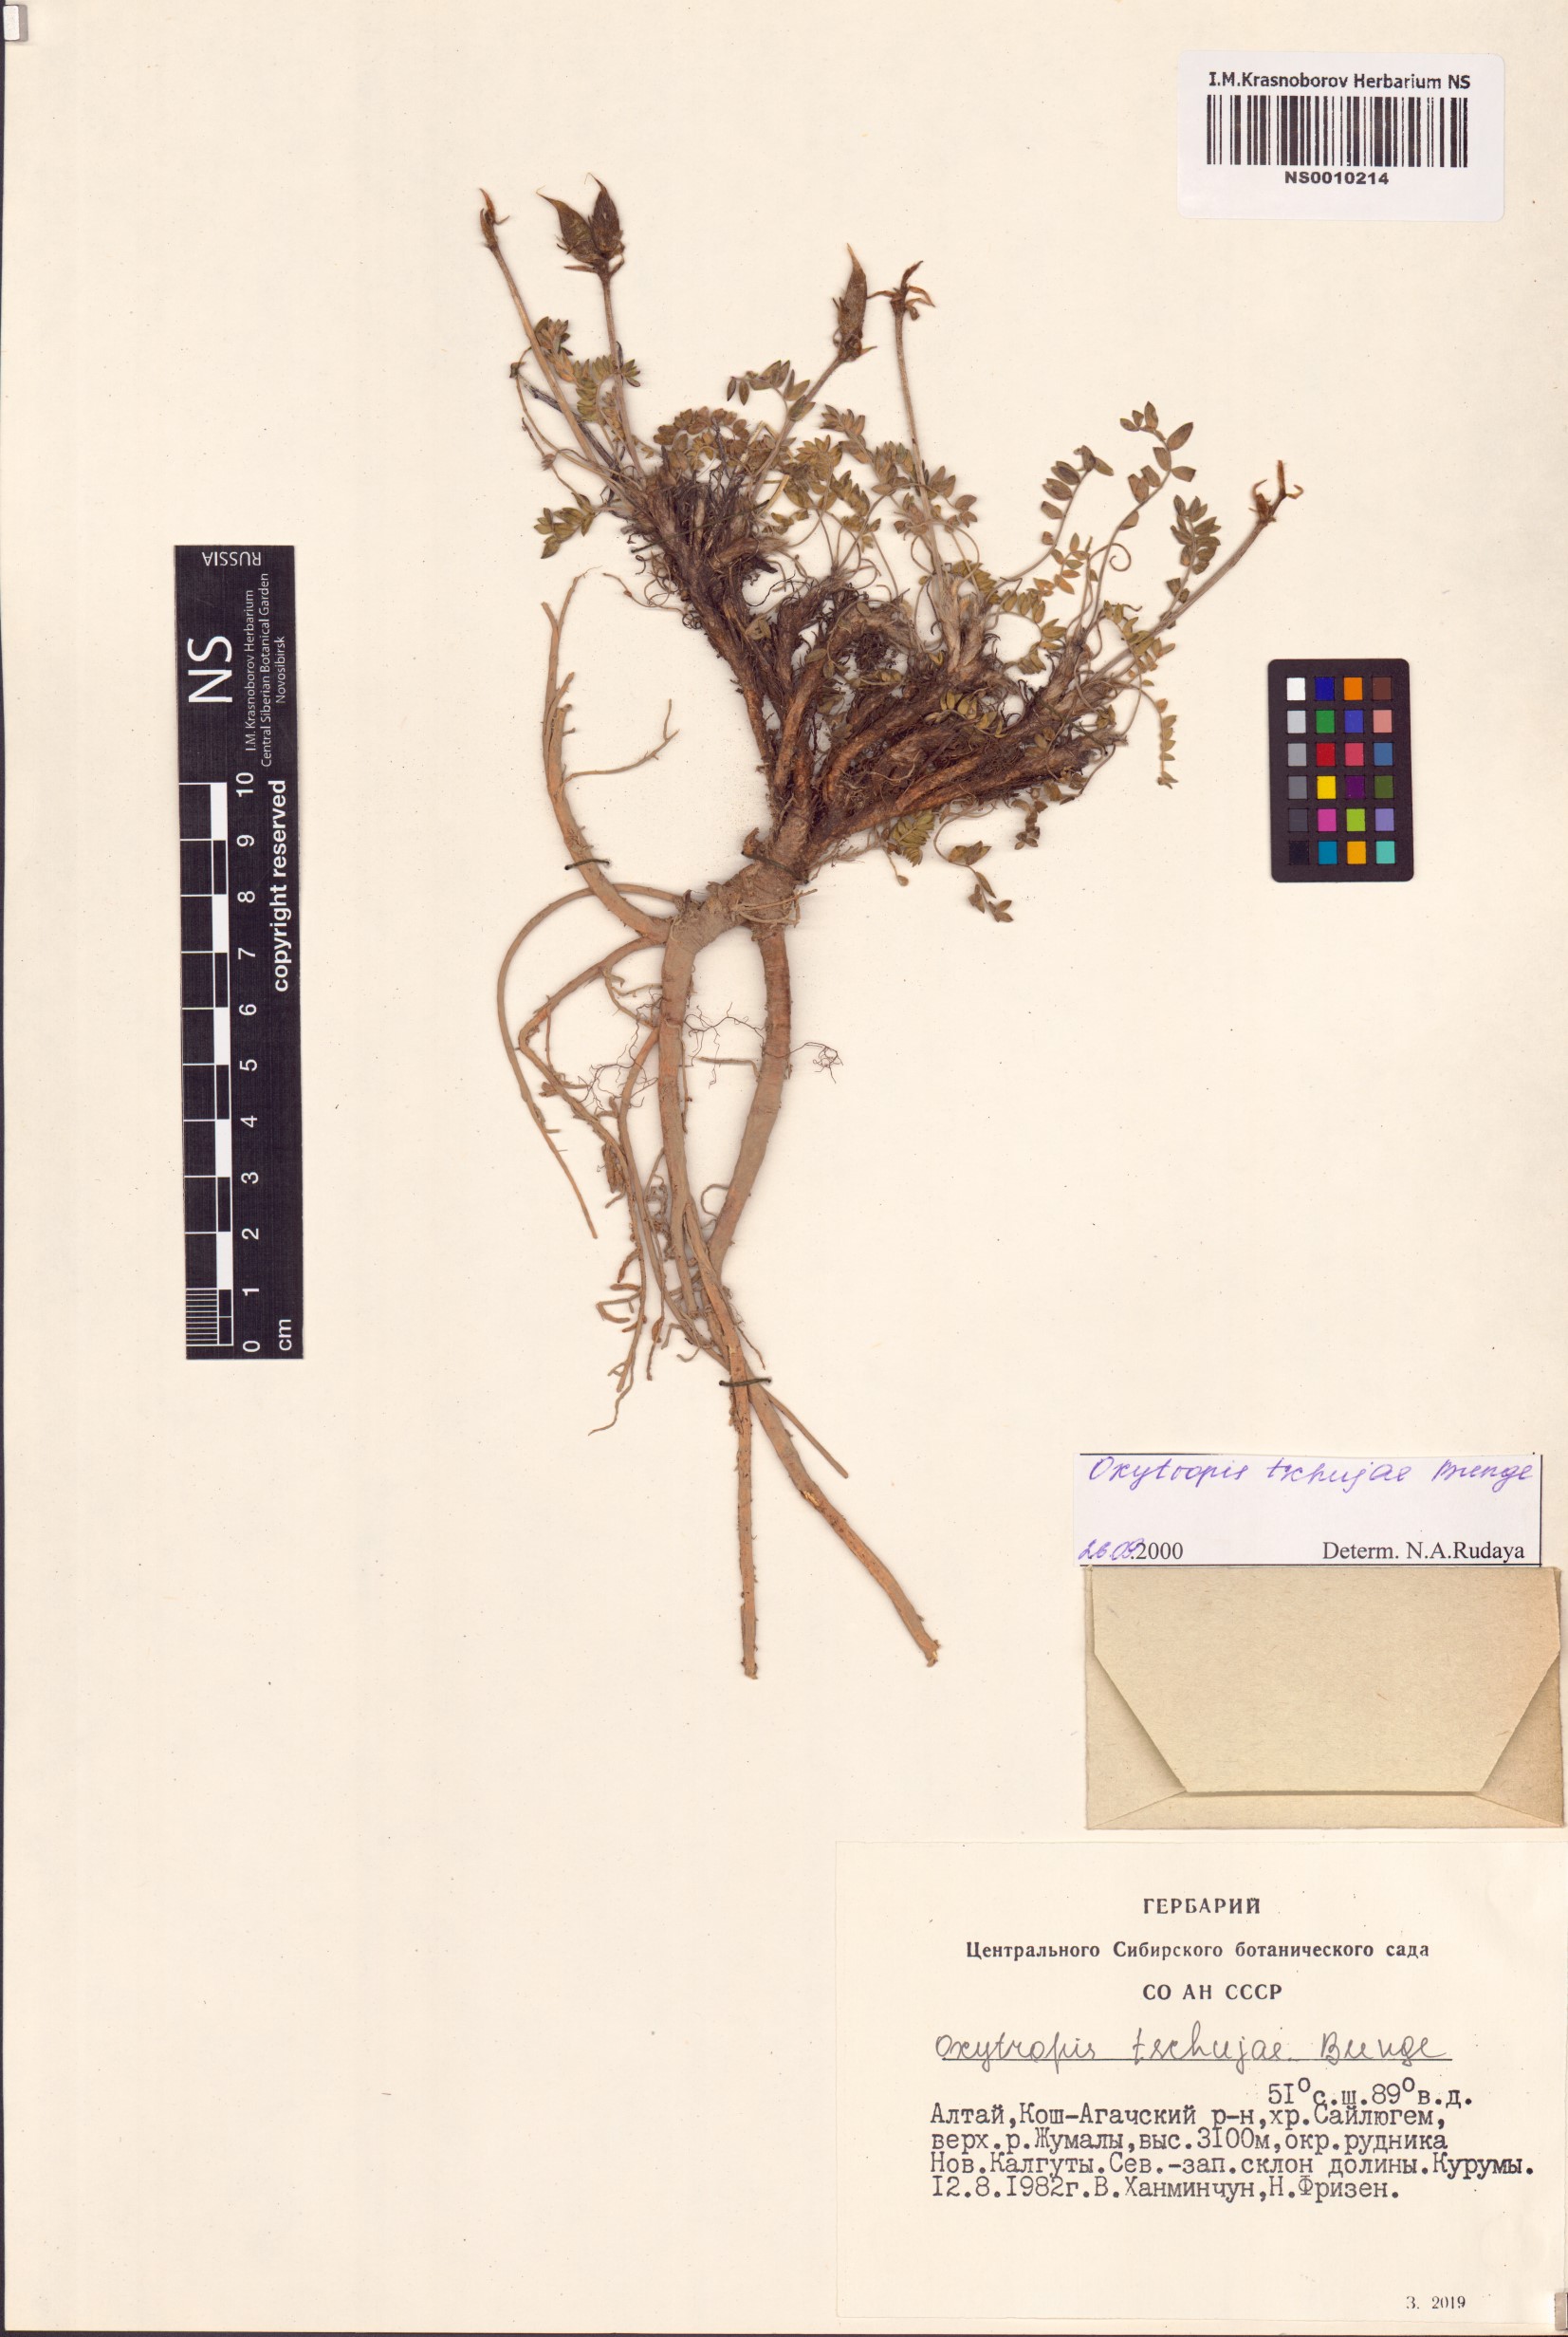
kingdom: Plantae
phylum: Tracheophyta
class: Magnoliopsida
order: Fabales
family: Fabaceae
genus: Oxytropis
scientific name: Oxytropis tschujae
